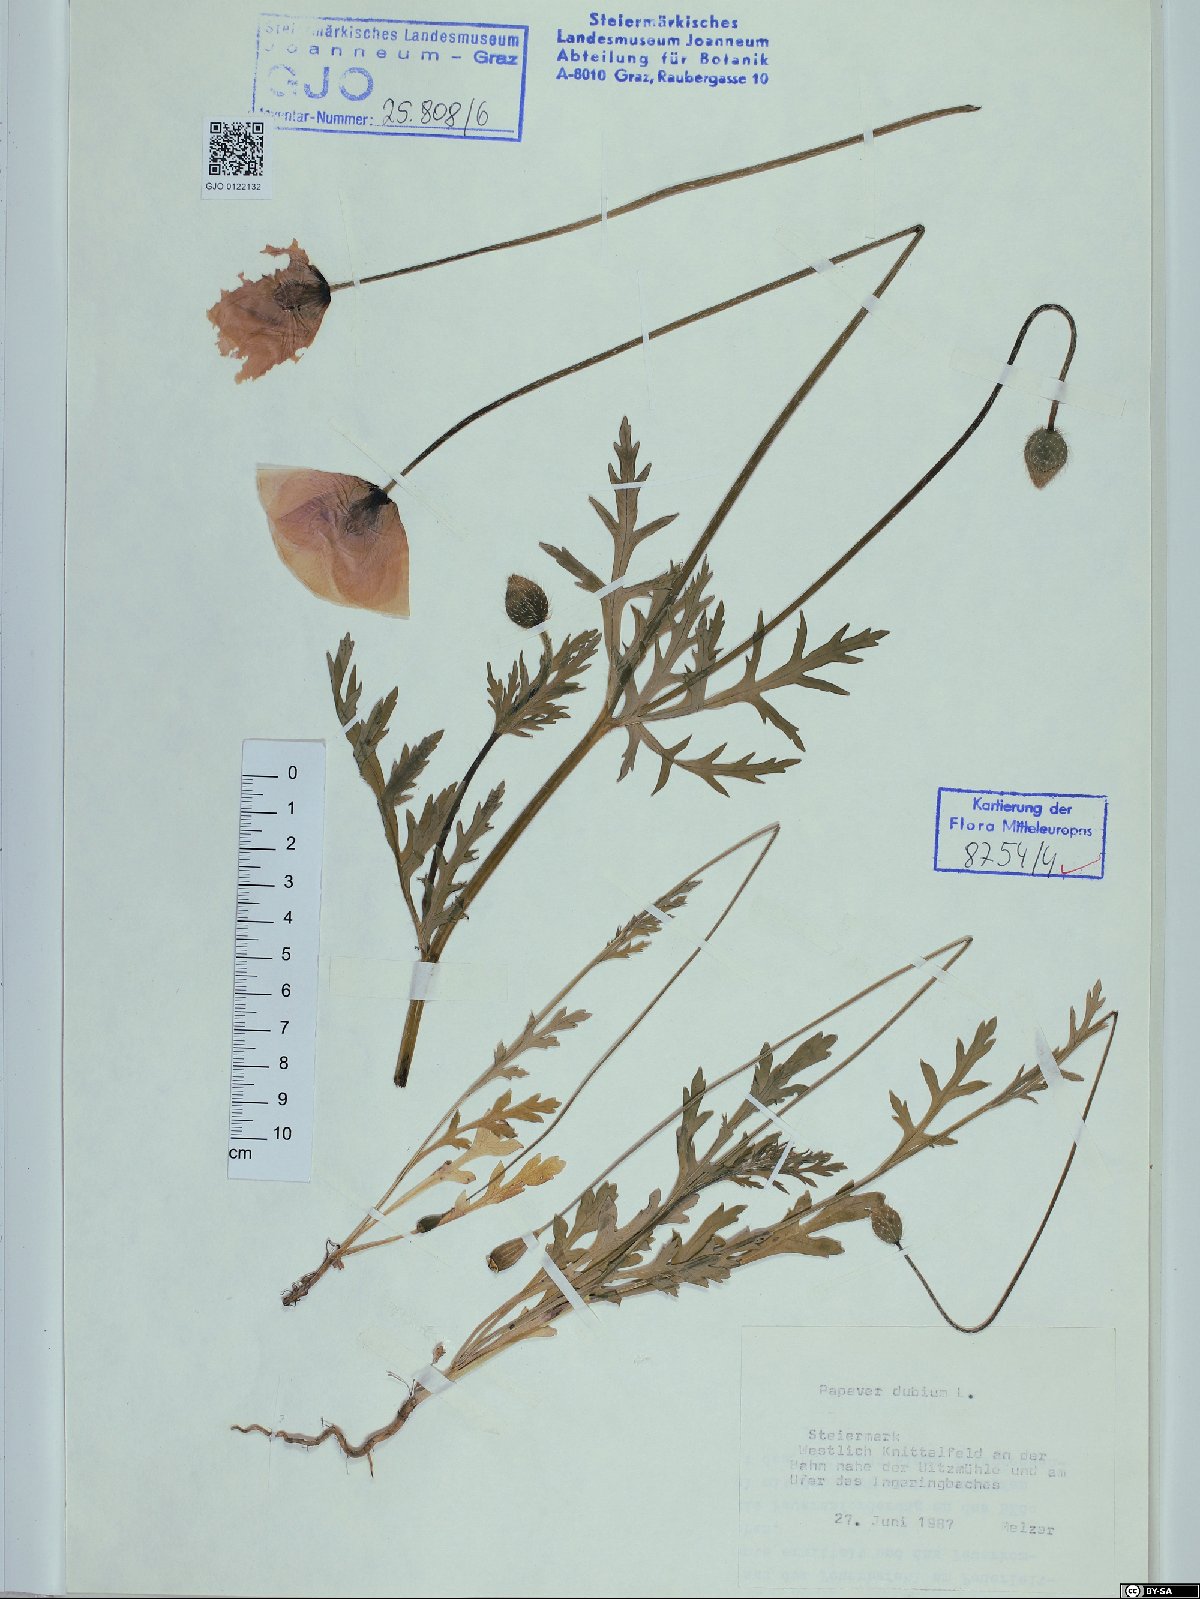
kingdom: Plantae
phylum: Tracheophyta
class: Magnoliopsida
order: Ranunculales
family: Papaveraceae
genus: Papaver
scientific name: Papaver dubium
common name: Long-headed poppy
